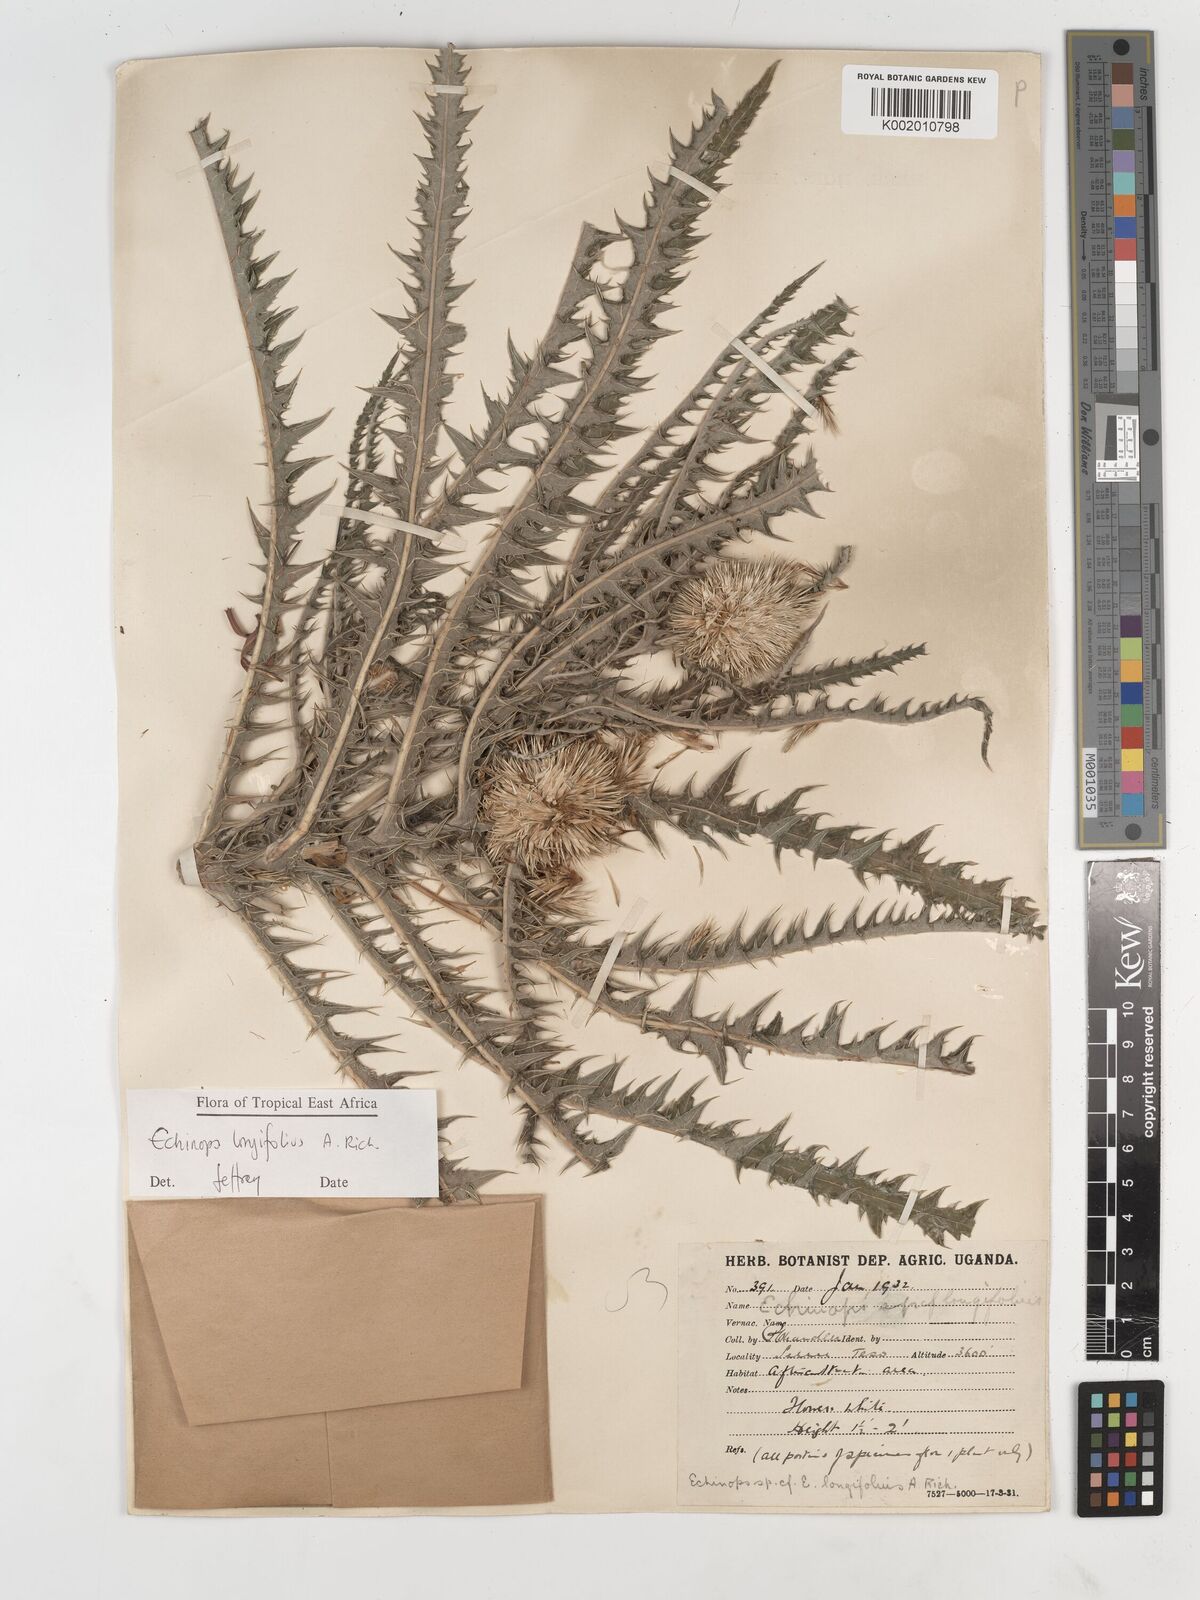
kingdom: Plantae
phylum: Tracheophyta
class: Magnoliopsida
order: Asterales
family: Asteraceae
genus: Echinops
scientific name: Echinops longifolius
